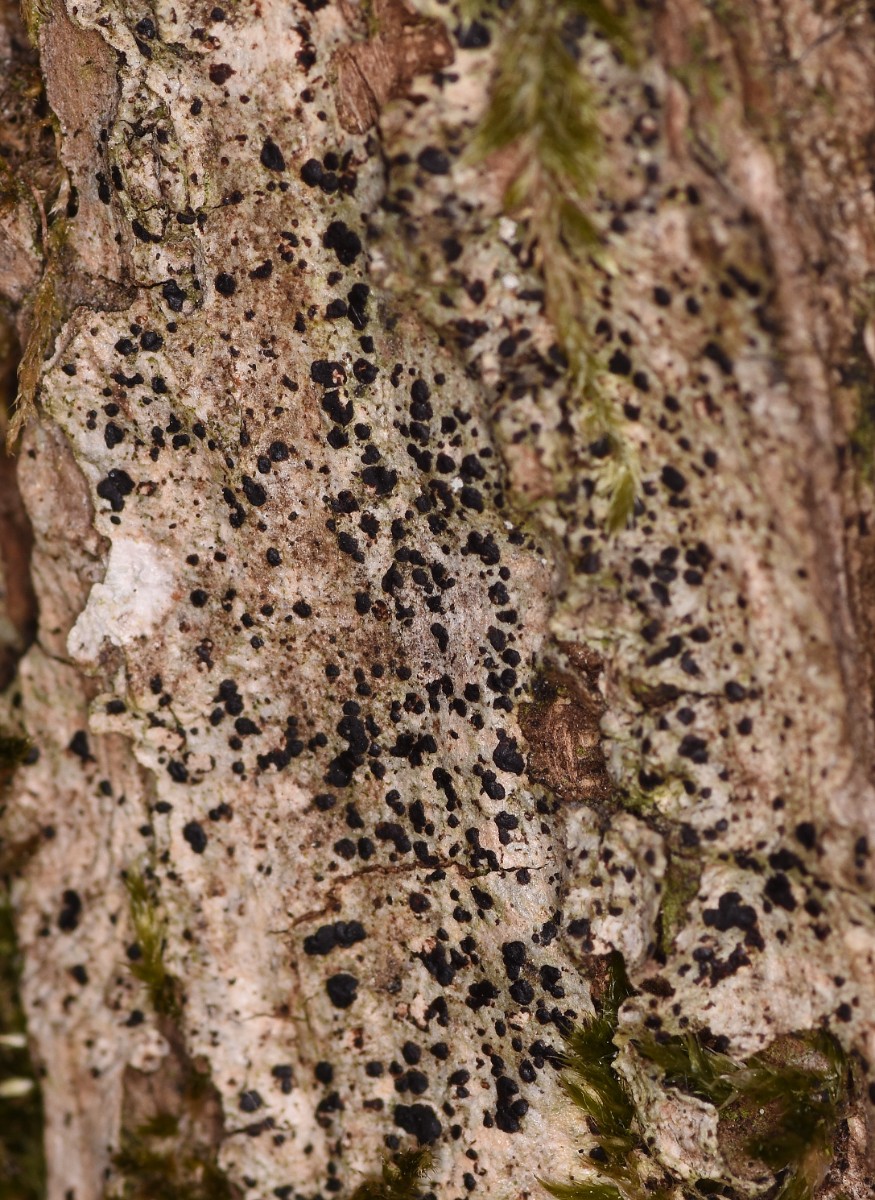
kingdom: Fungi
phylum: Ascomycota
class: Arthoniomycetes
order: Arthoniales
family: Arthoniaceae
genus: Diarthonis
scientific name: Diarthonis spadicea
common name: skygge-pletlav
